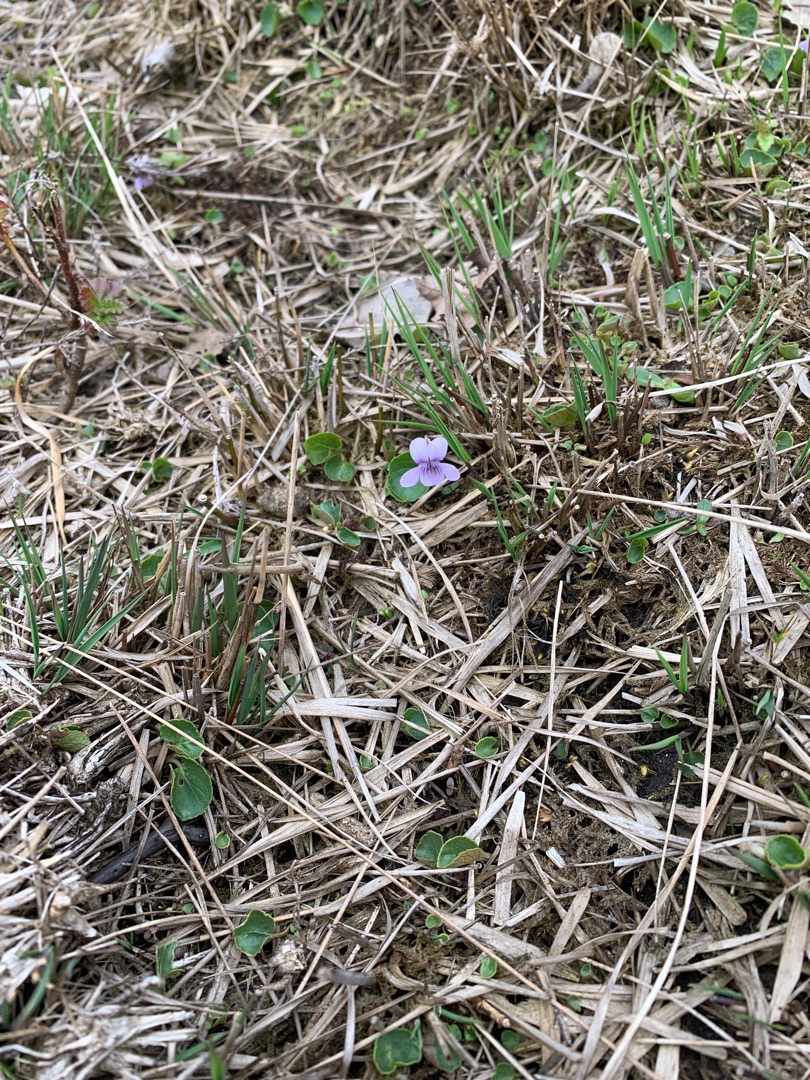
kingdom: Plantae
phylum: Tracheophyta
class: Magnoliopsida
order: Malpighiales
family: Violaceae
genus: Viola
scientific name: Viola palustris
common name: Eng-viol
